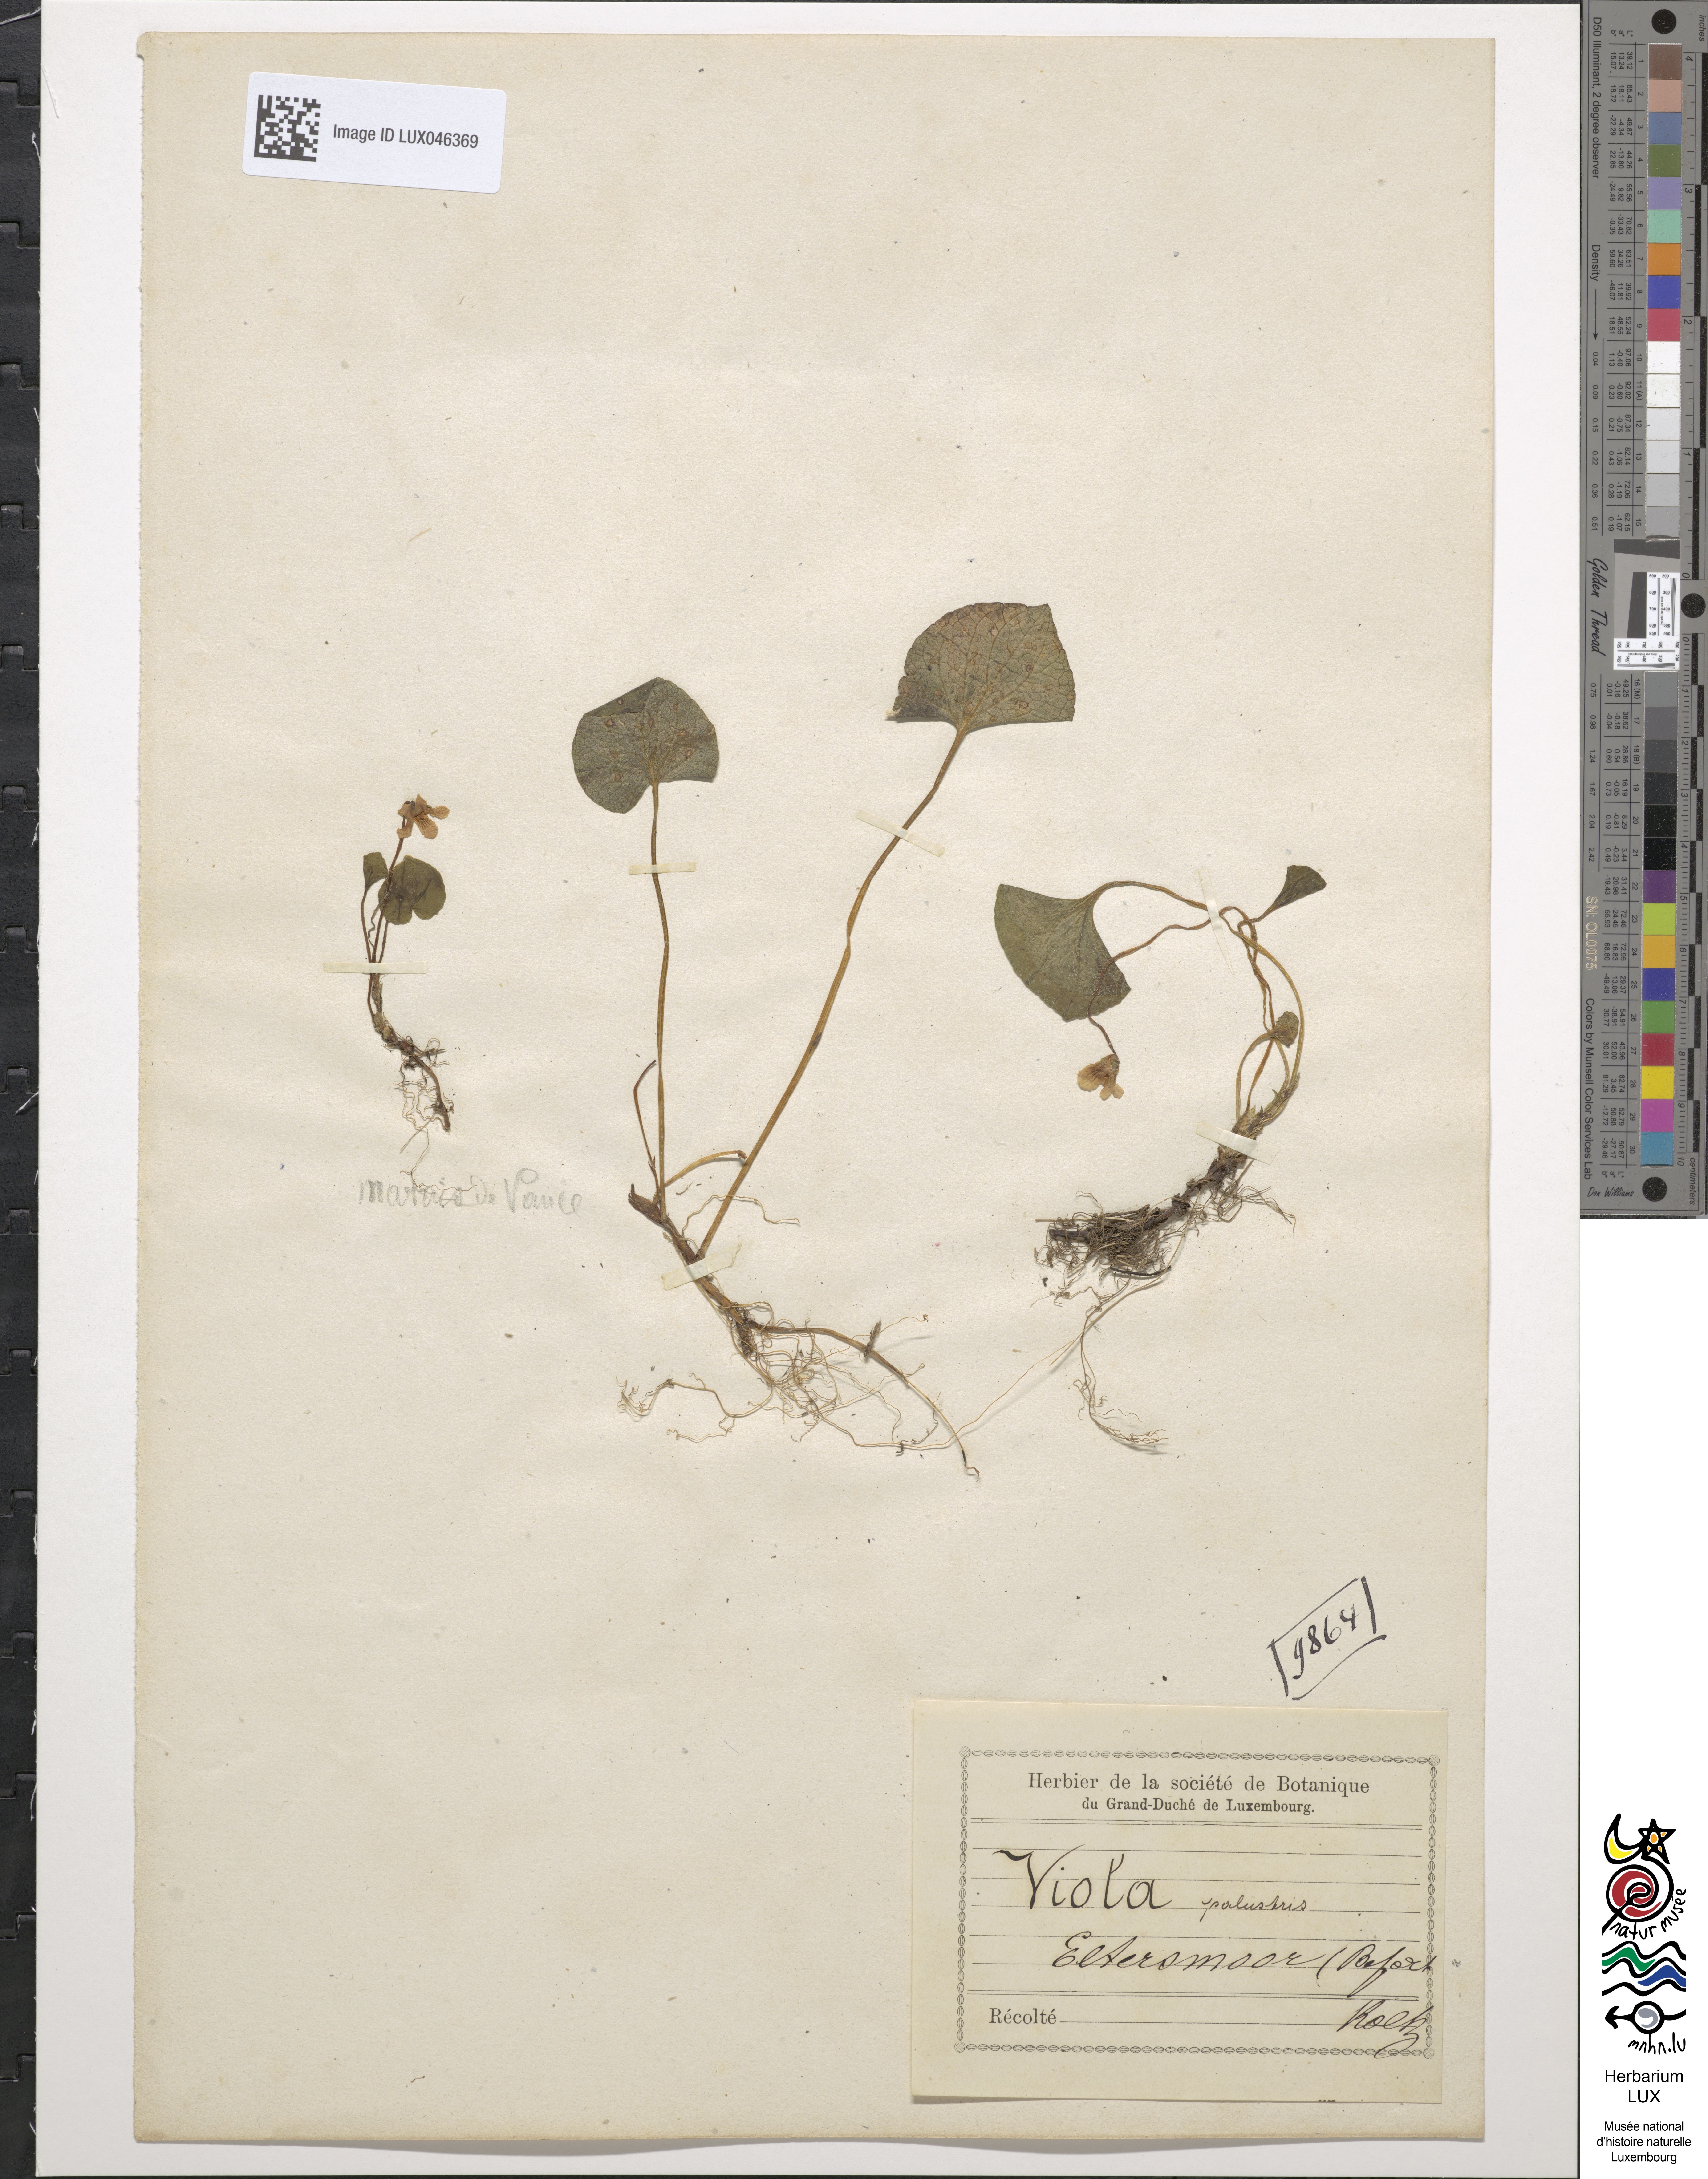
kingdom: Plantae
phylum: Tracheophyta
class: Magnoliopsida
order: Malpighiales
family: Violaceae
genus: Viola
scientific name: Viola palustris
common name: Marsh violet
